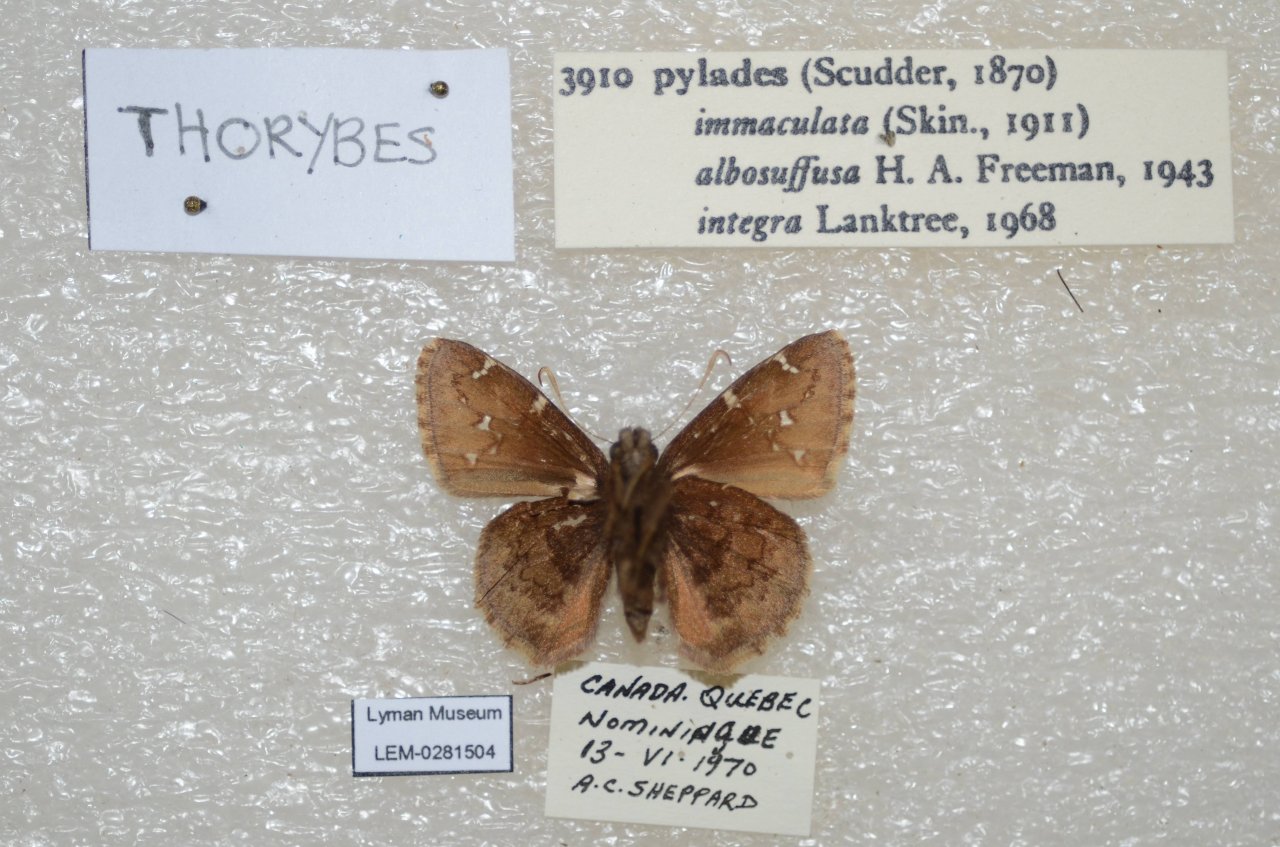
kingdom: Animalia
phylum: Arthropoda
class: Insecta
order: Lepidoptera
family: Hesperiidae
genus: Autochton
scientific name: Autochton
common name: Northern Cloudywing
